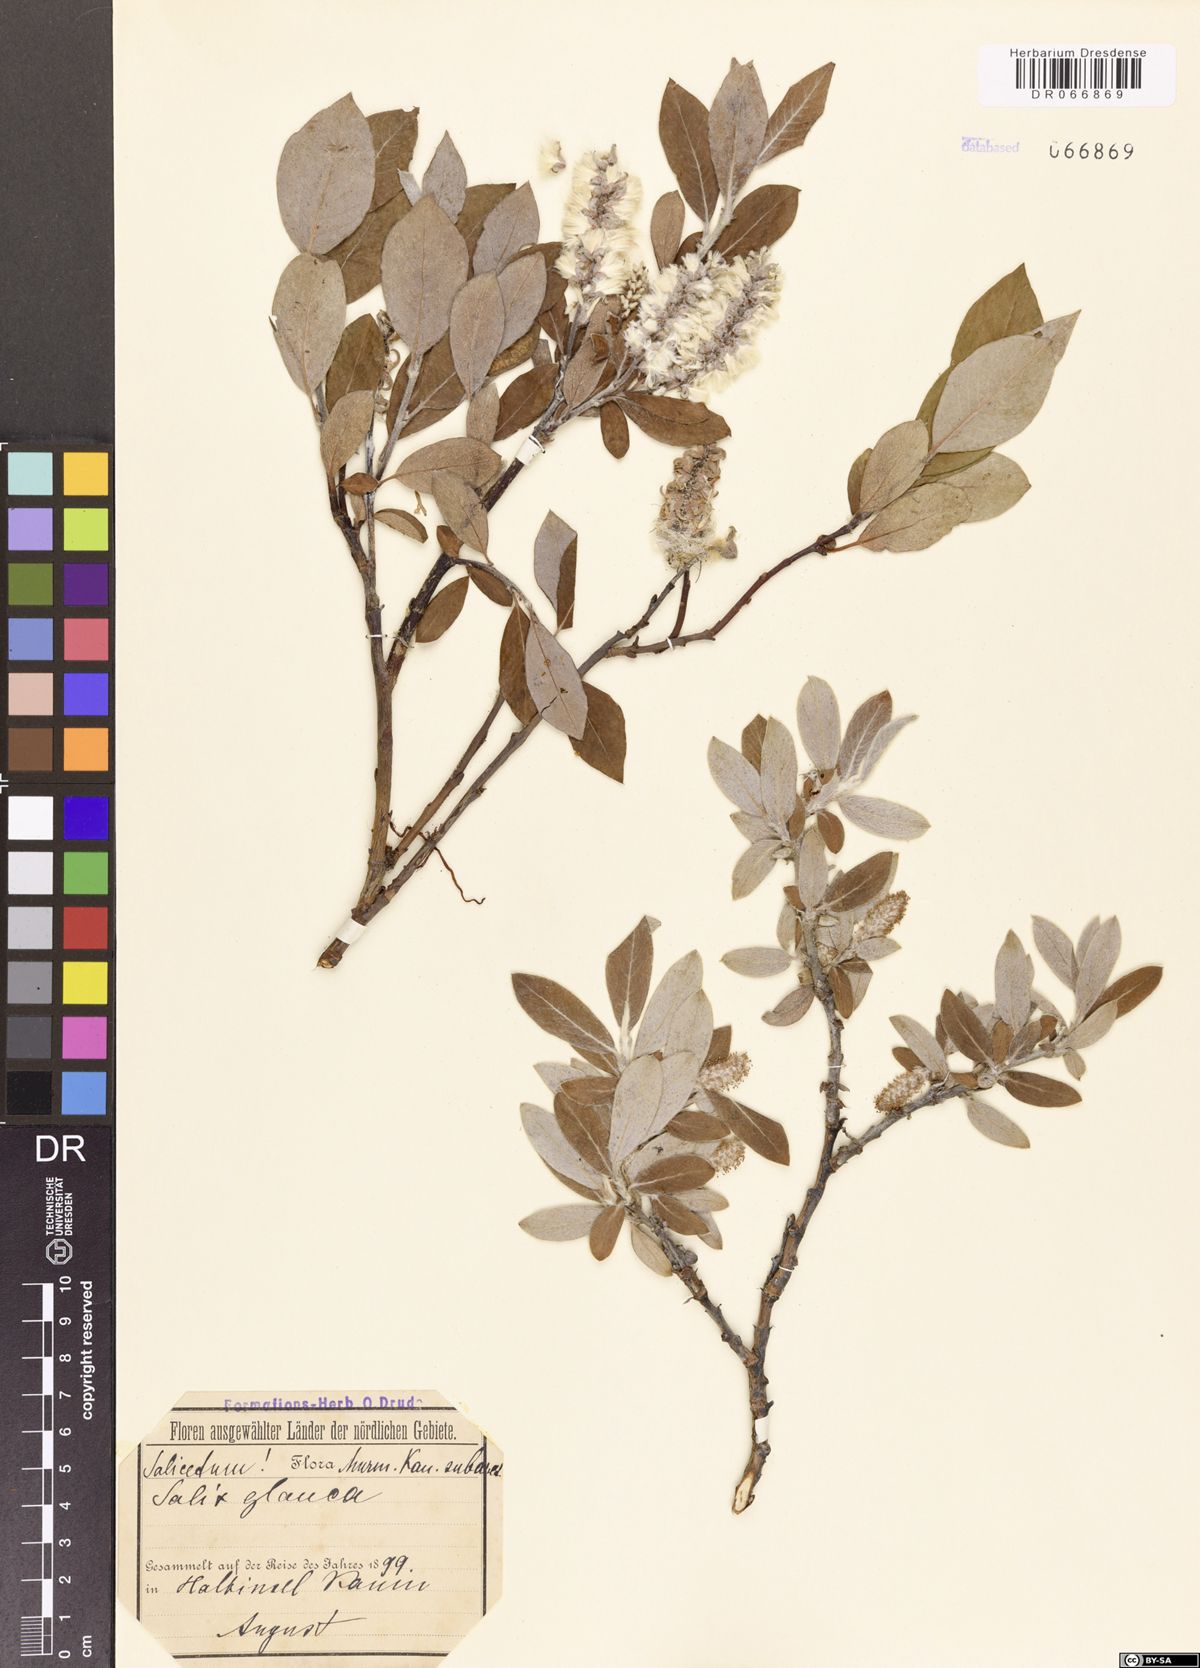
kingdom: Plantae
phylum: Tracheophyta
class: Magnoliopsida
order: Malpighiales
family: Salicaceae
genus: Salix
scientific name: Salix glauca
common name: Glaucous willow
